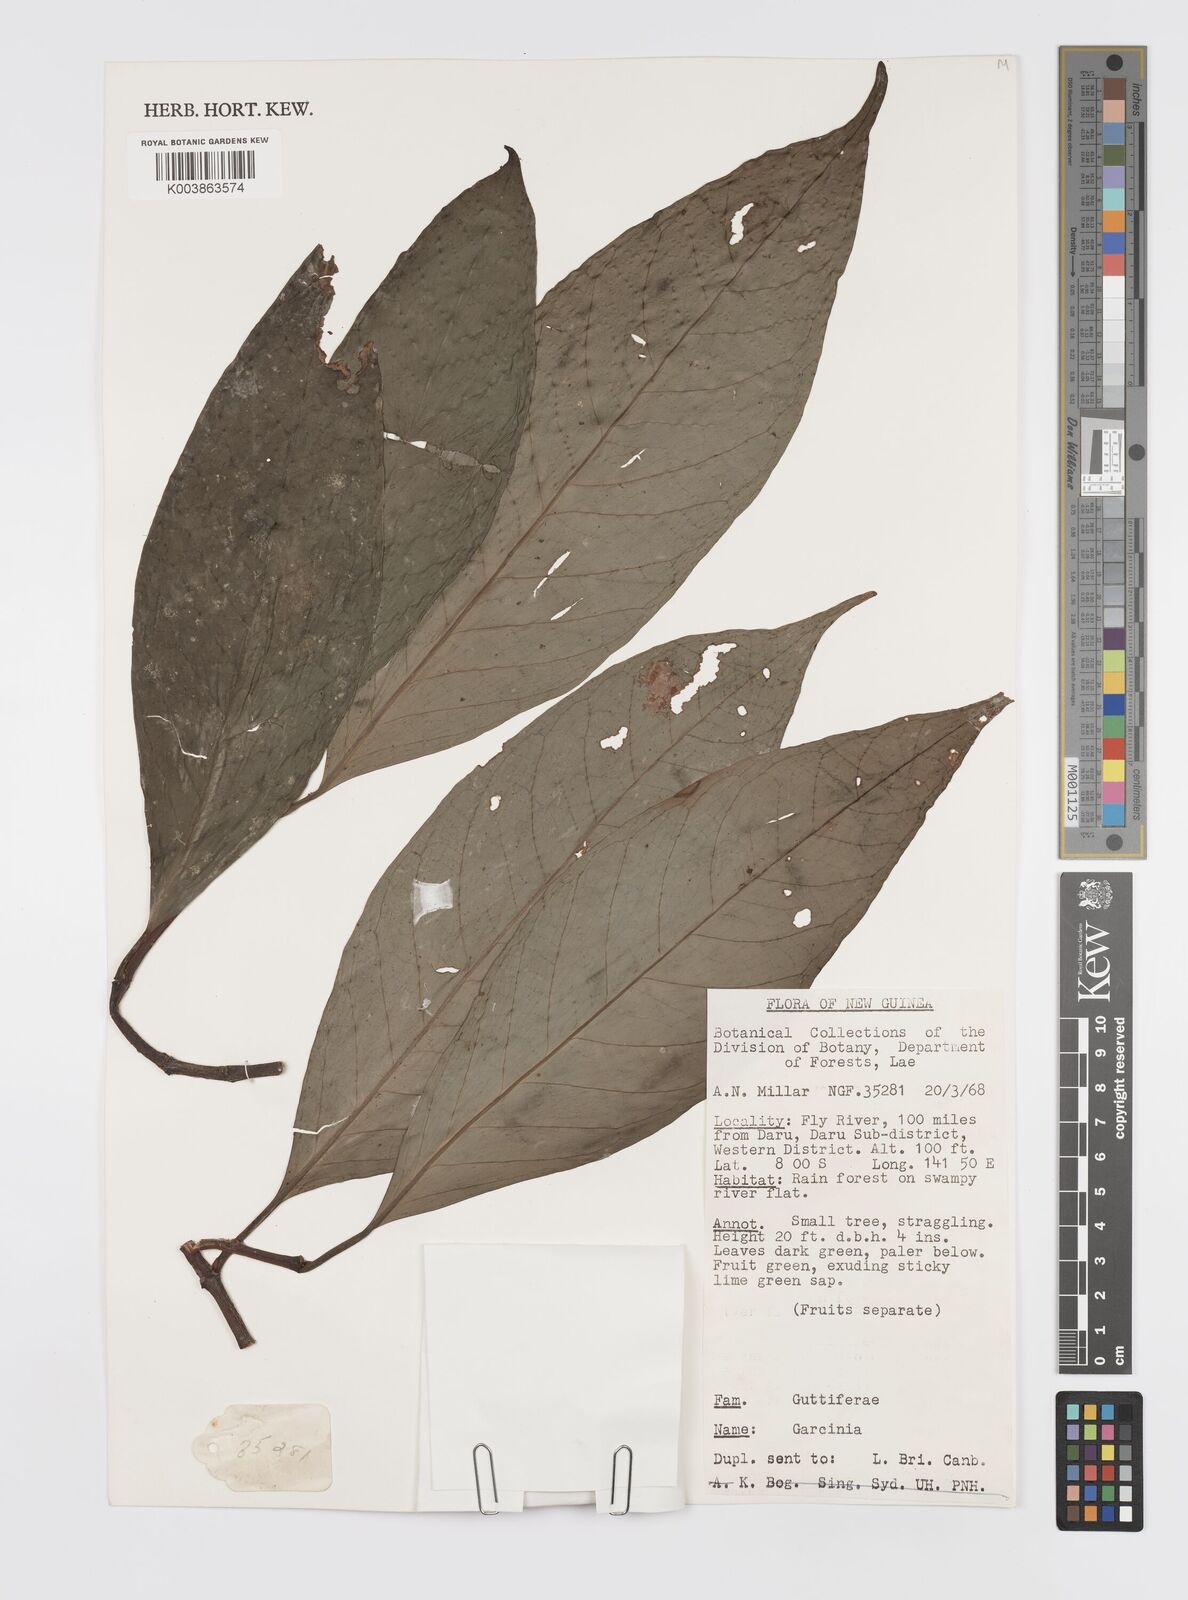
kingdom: Plantae
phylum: Tracheophyta
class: Magnoliopsida
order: Malpighiales
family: Clusiaceae
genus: Garcinia
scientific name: Garcinia
